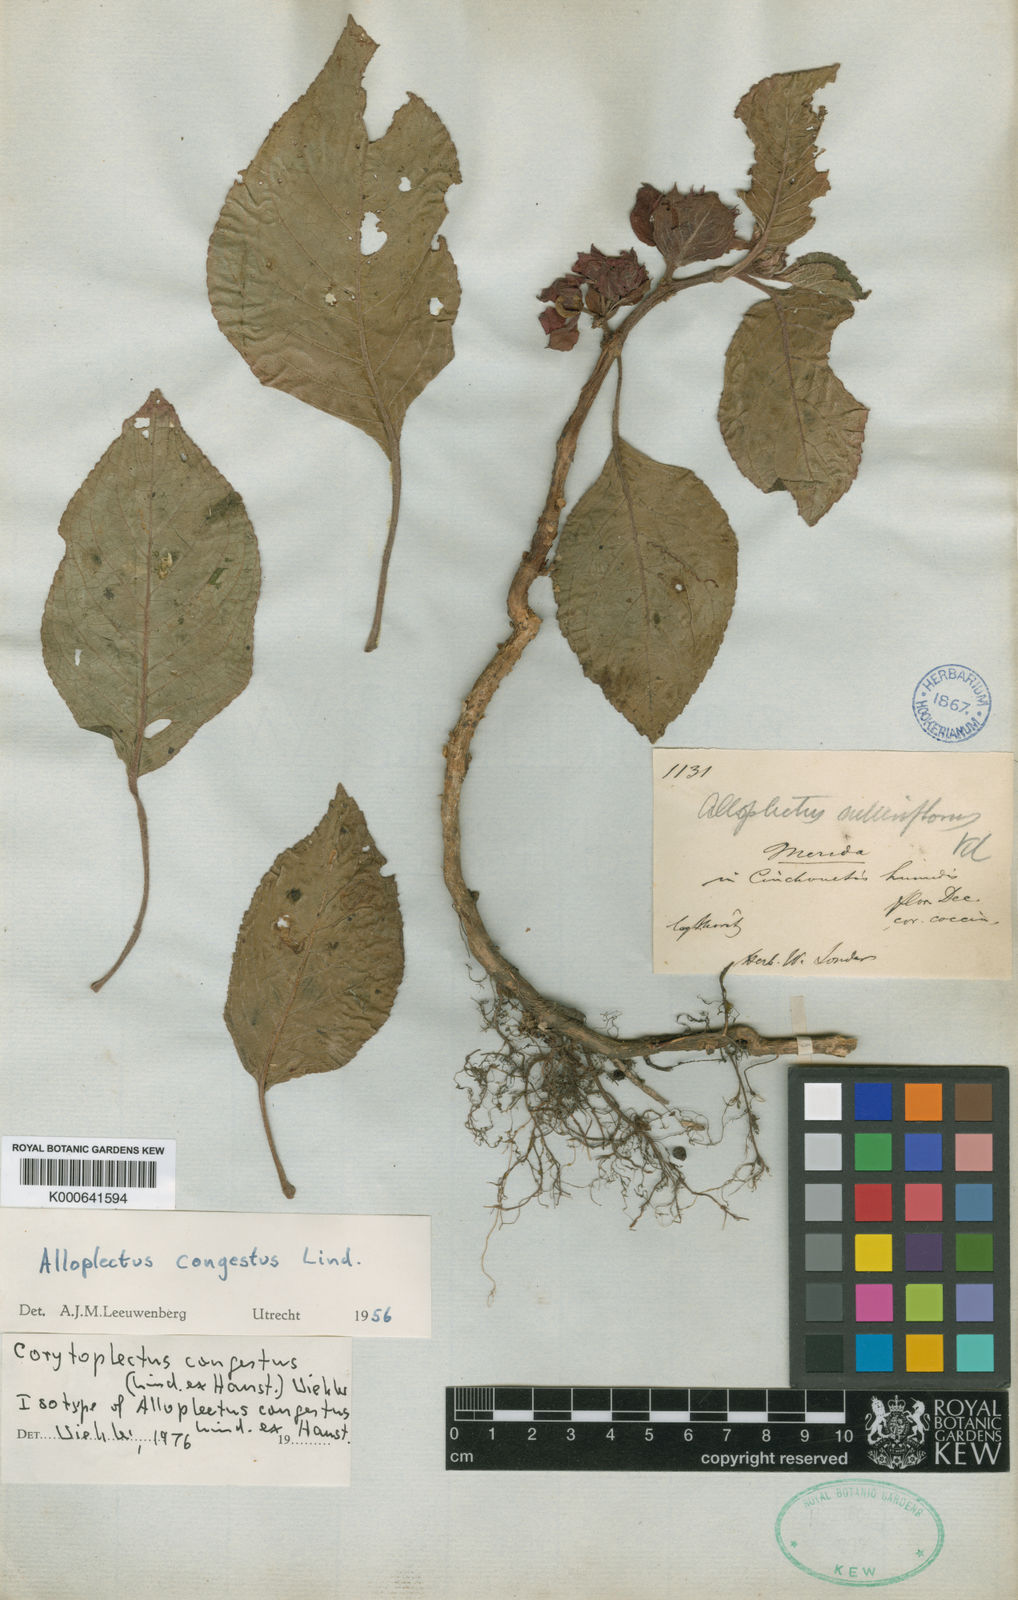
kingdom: Plantae
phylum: Tracheophyta
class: Magnoliopsida
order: Lamiales
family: Gesneriaceae
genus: Corytoplectus
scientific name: Corytoplectus congestus
